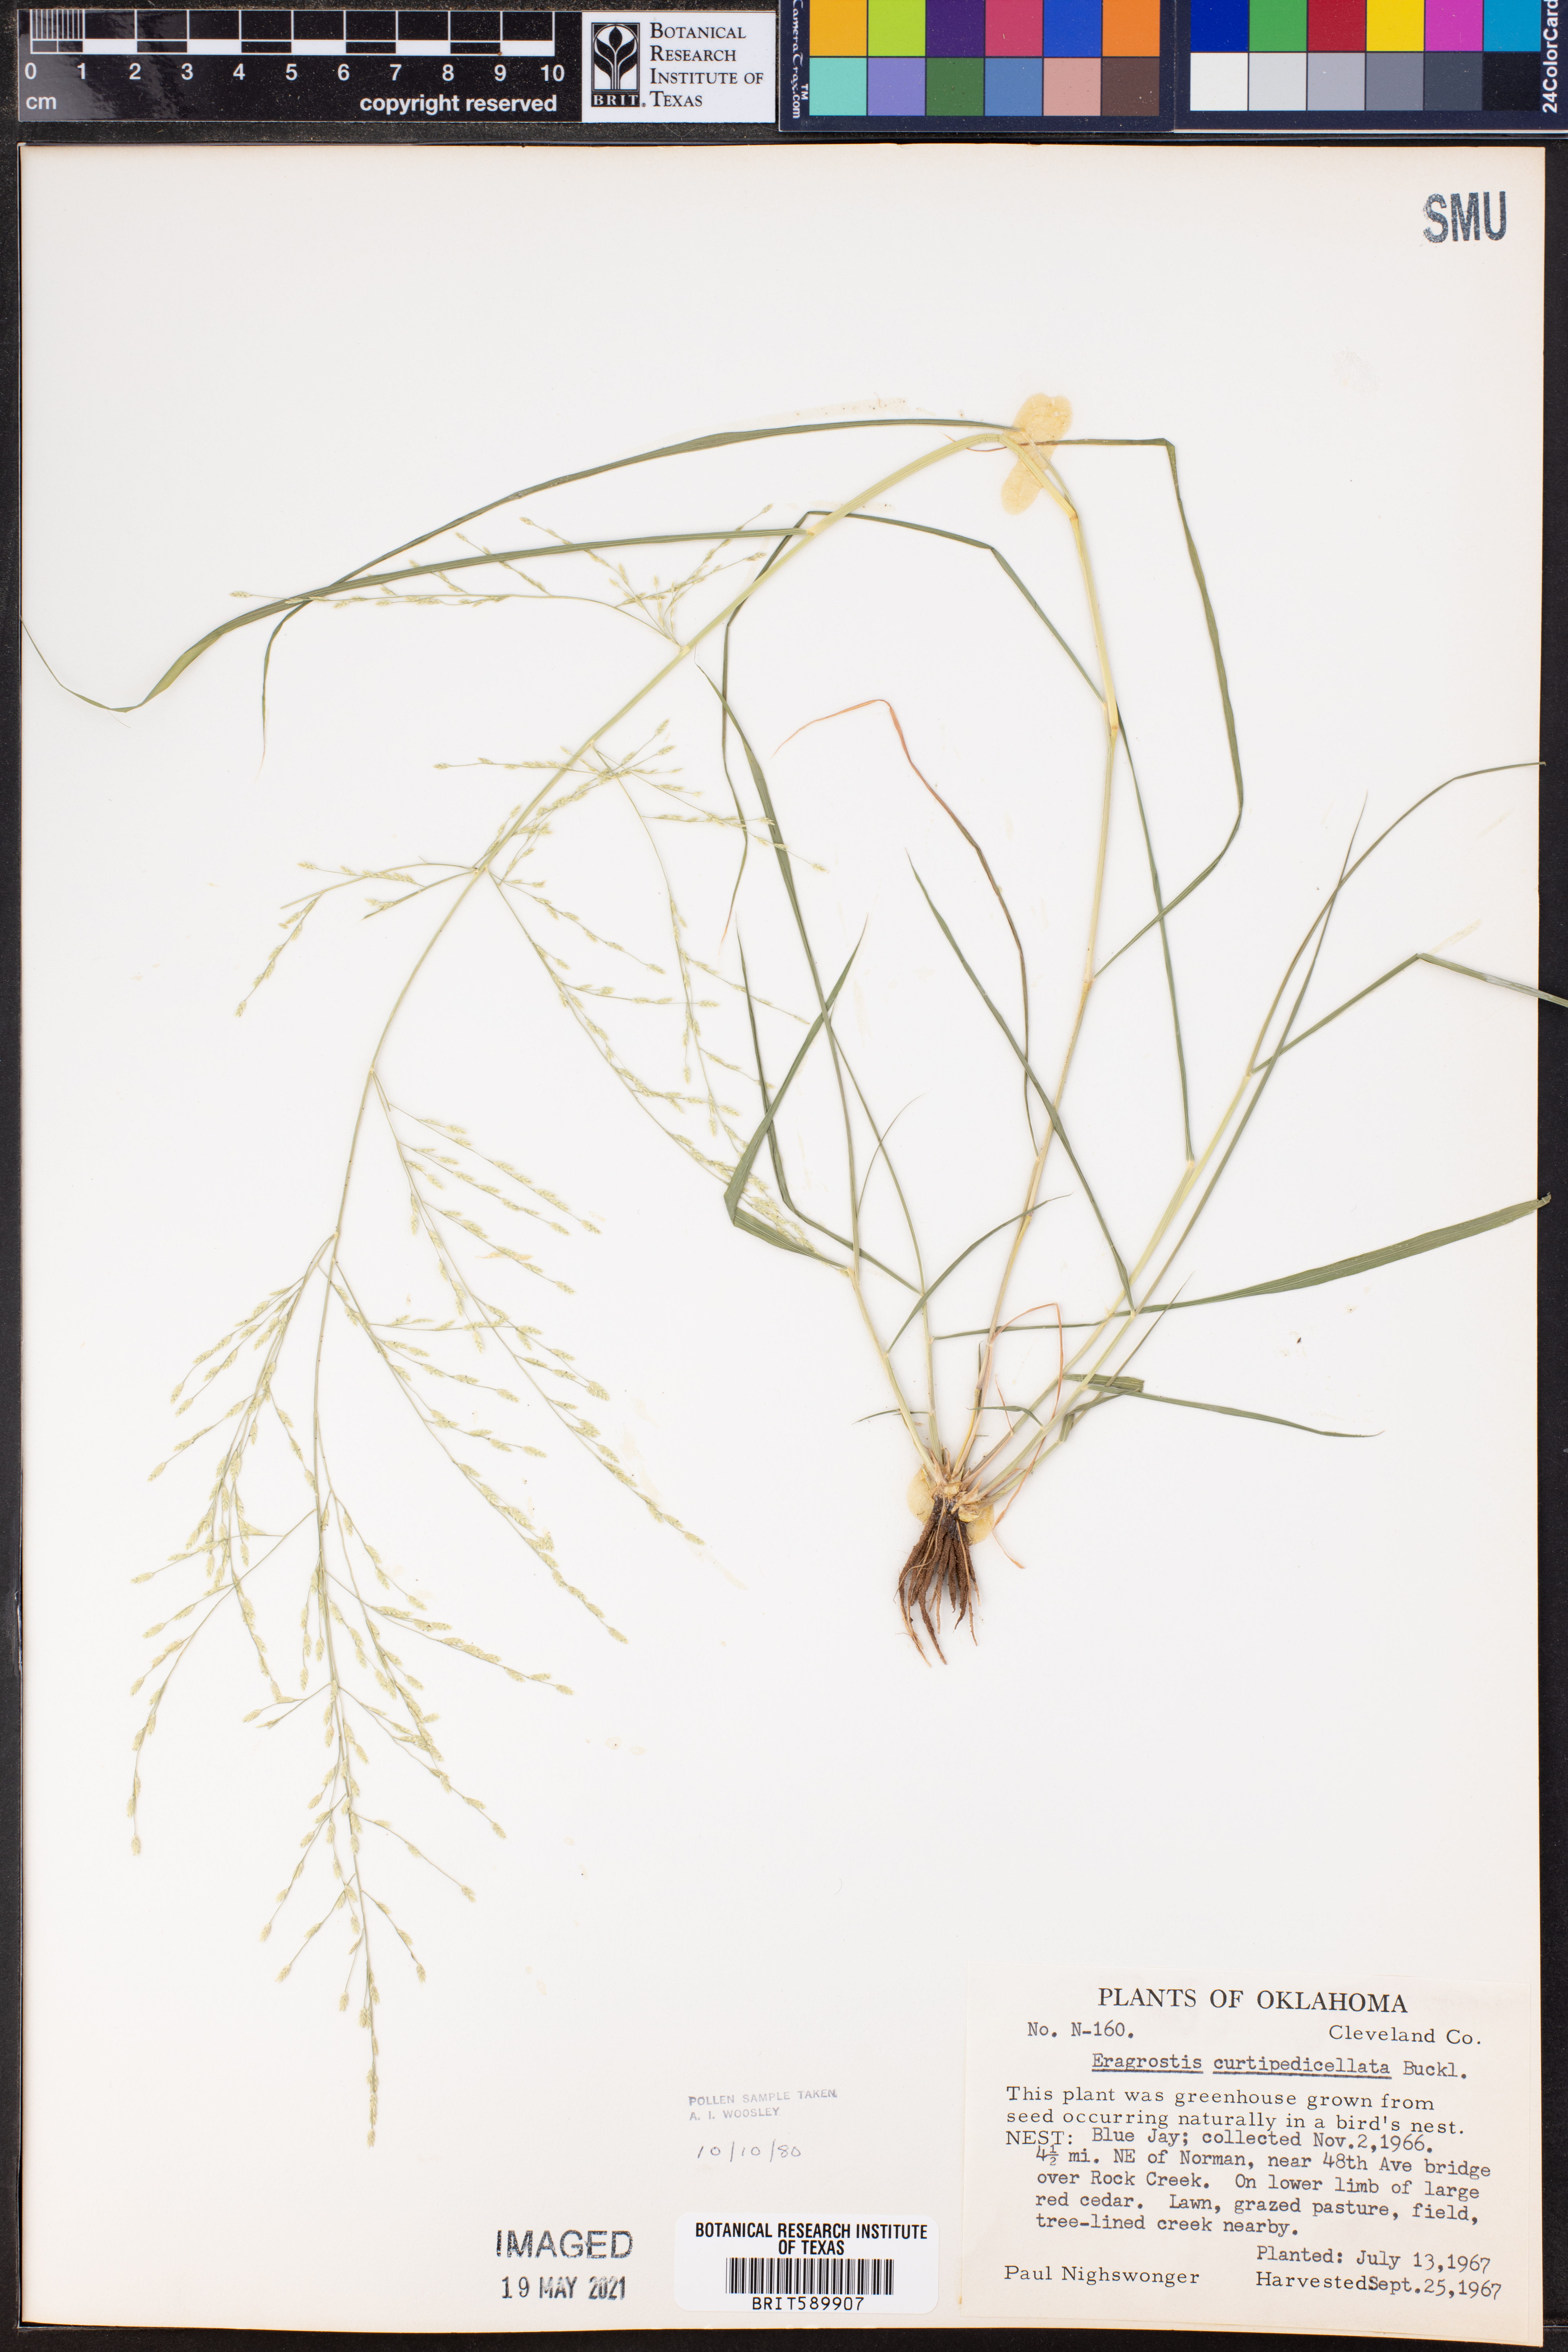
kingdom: Plantae
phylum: Tracheophyta
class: Liliopsida
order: Poales
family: Poaceae
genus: Eragrostis
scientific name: Eragrostis curtipedicellata
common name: Gummy love grass
